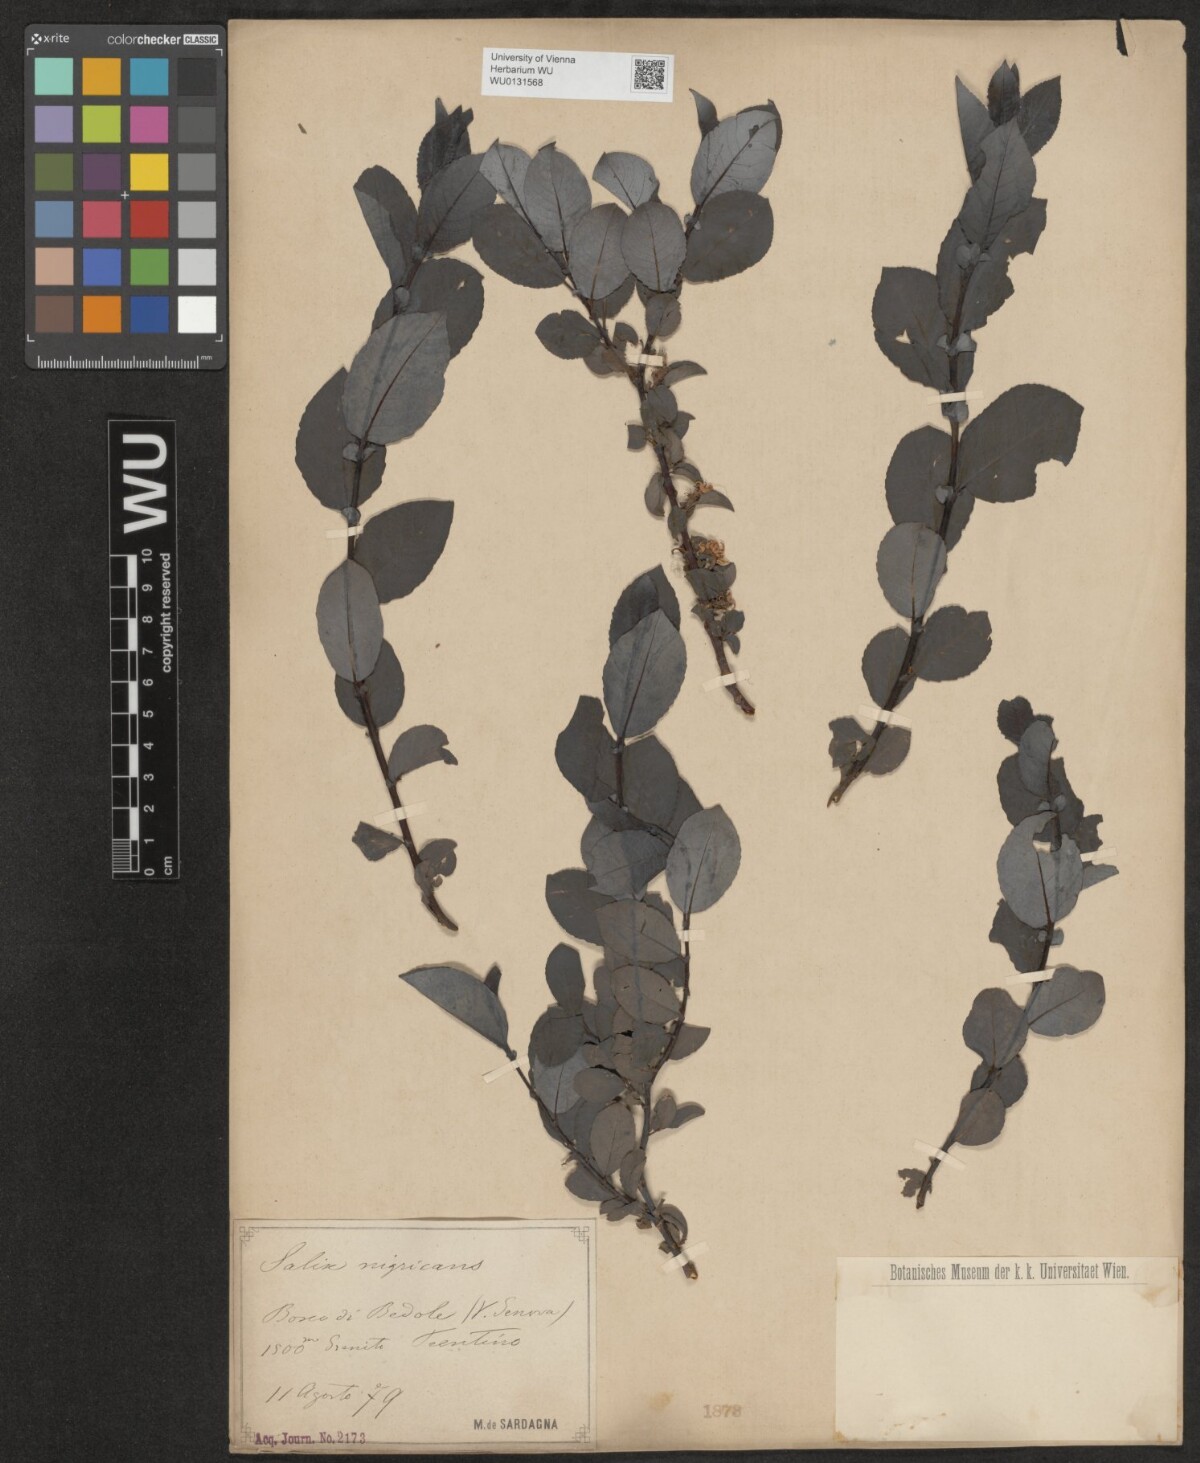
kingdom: Plantae
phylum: Tracheophyta
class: Magnoliopsida
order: Malpighiales
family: Salicaceae
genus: Salix
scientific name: Salix myrsinifolia
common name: Dark-leaved willow
